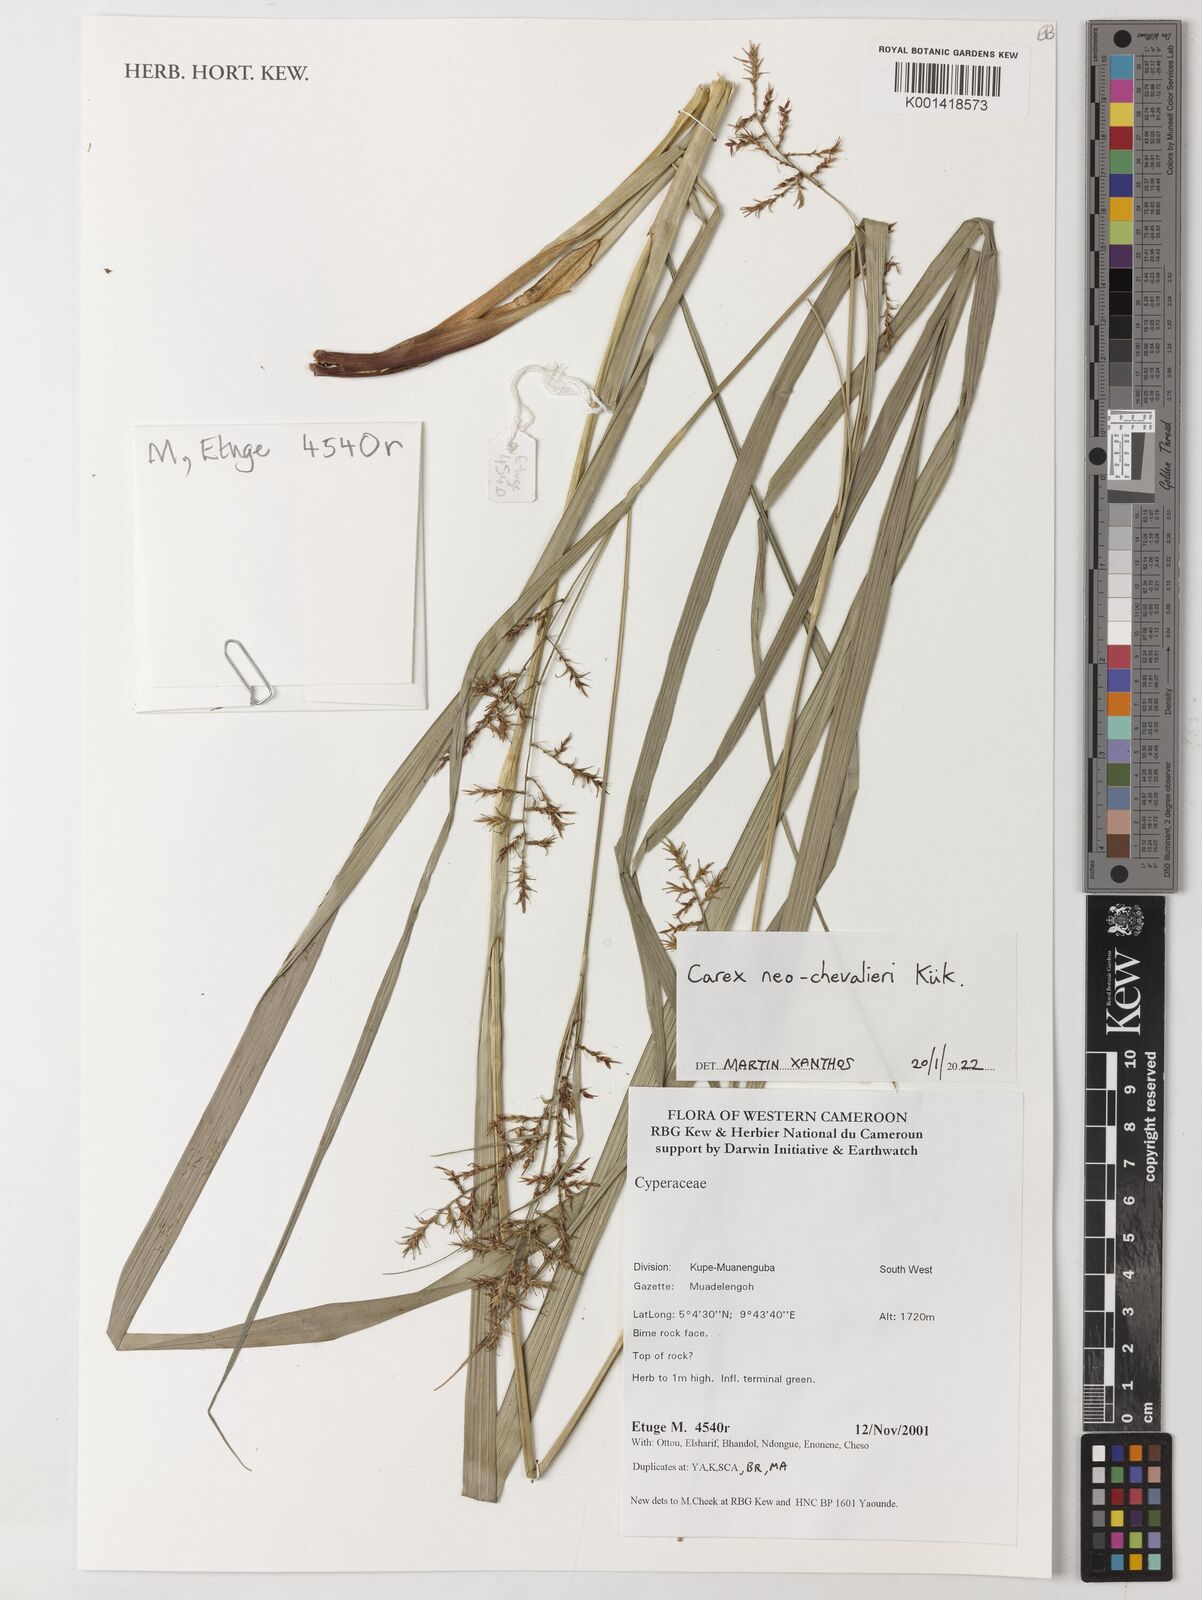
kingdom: Plantae
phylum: Tracheophyta
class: Liliopsida
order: Poales
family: Cyperaceae
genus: Carex
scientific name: Carex neochevalieri
